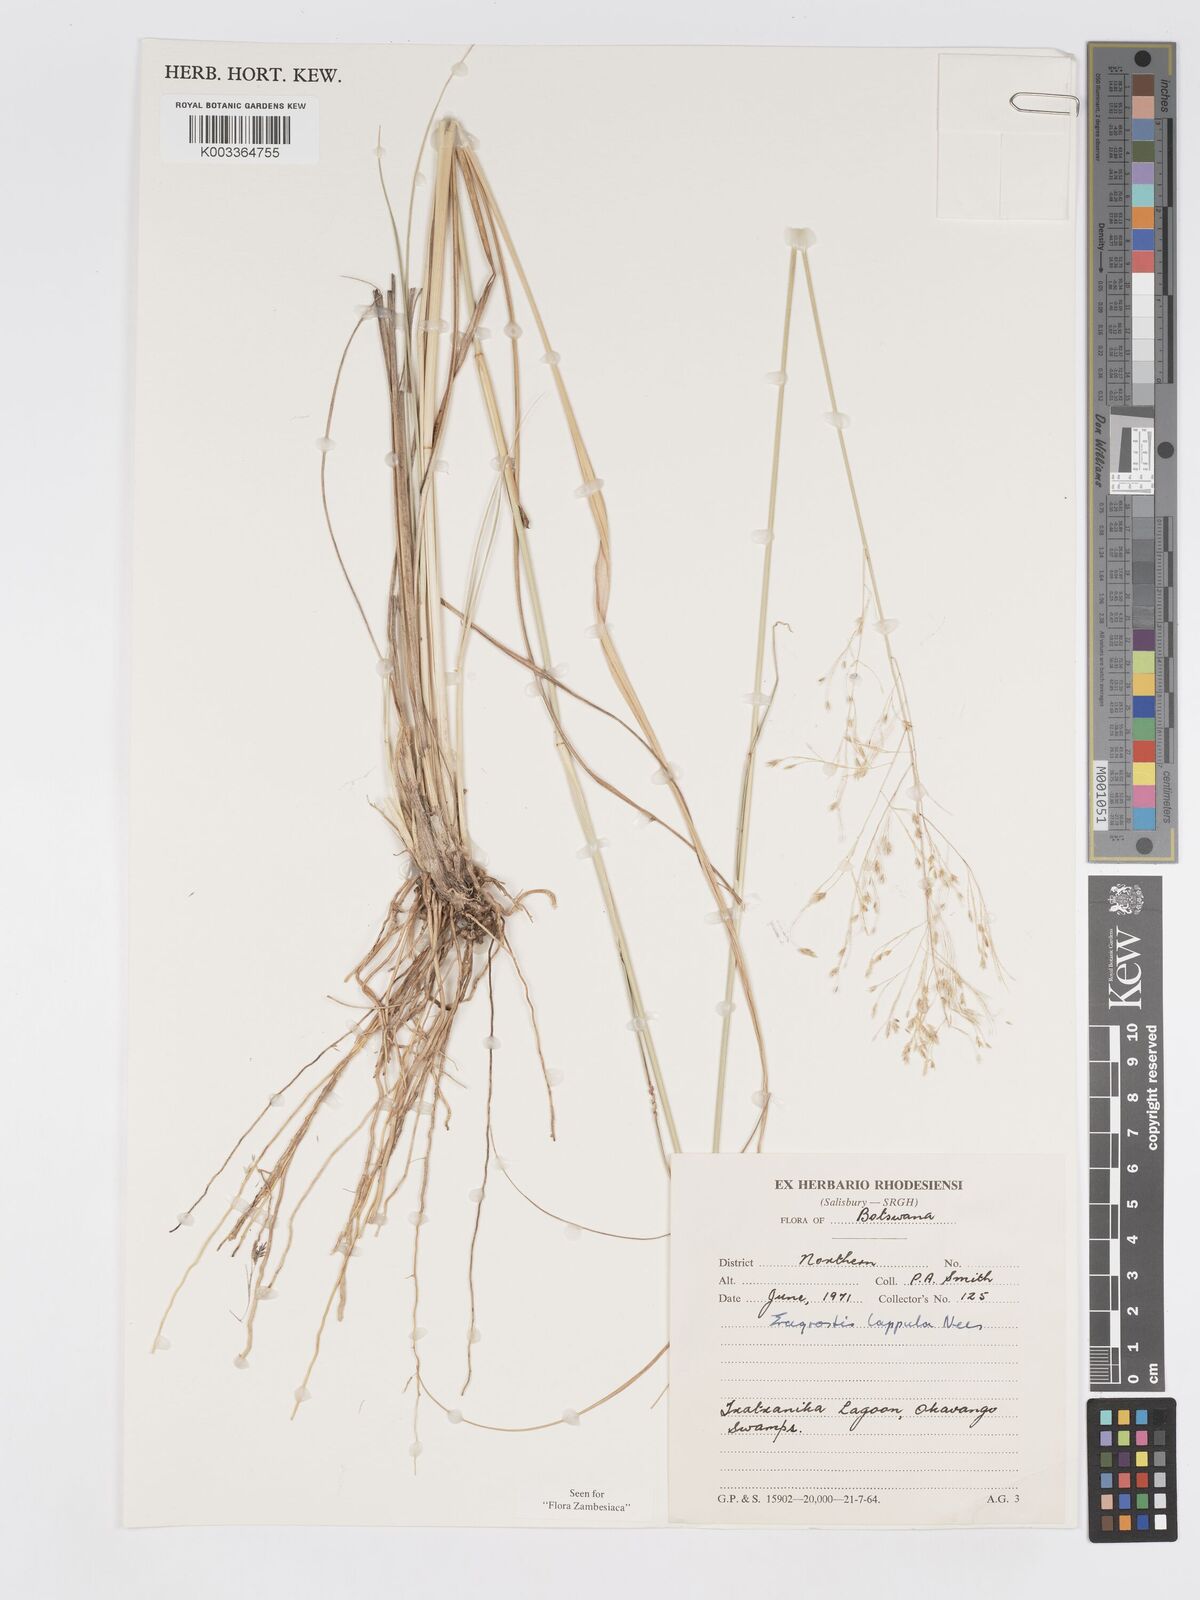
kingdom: Plantae
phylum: Tracheophyta
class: Liliopsida
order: Poales
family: Poaceae
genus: Eragrostis
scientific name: Eragrostis lappula
